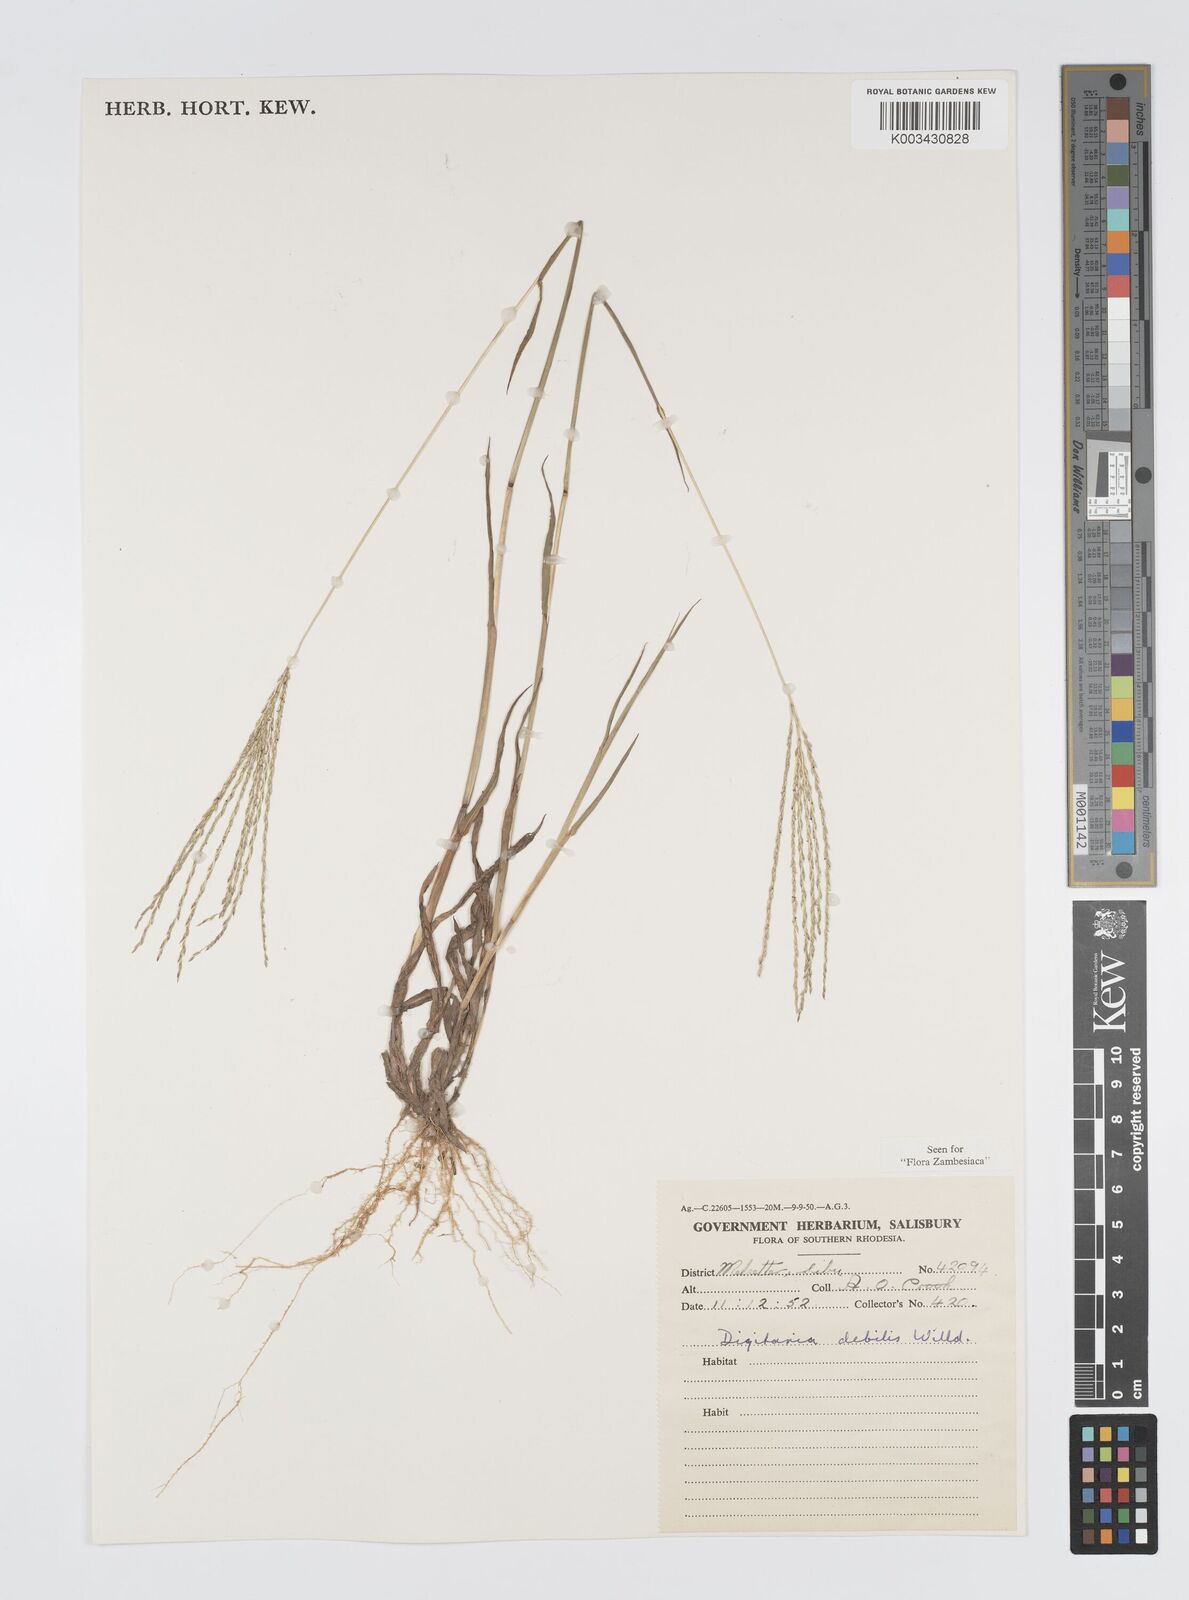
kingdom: Plantae
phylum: Tracheophyta
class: Liliopsida
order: Poales
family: Poaceae
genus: Digitaria
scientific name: Digitaria debilis
